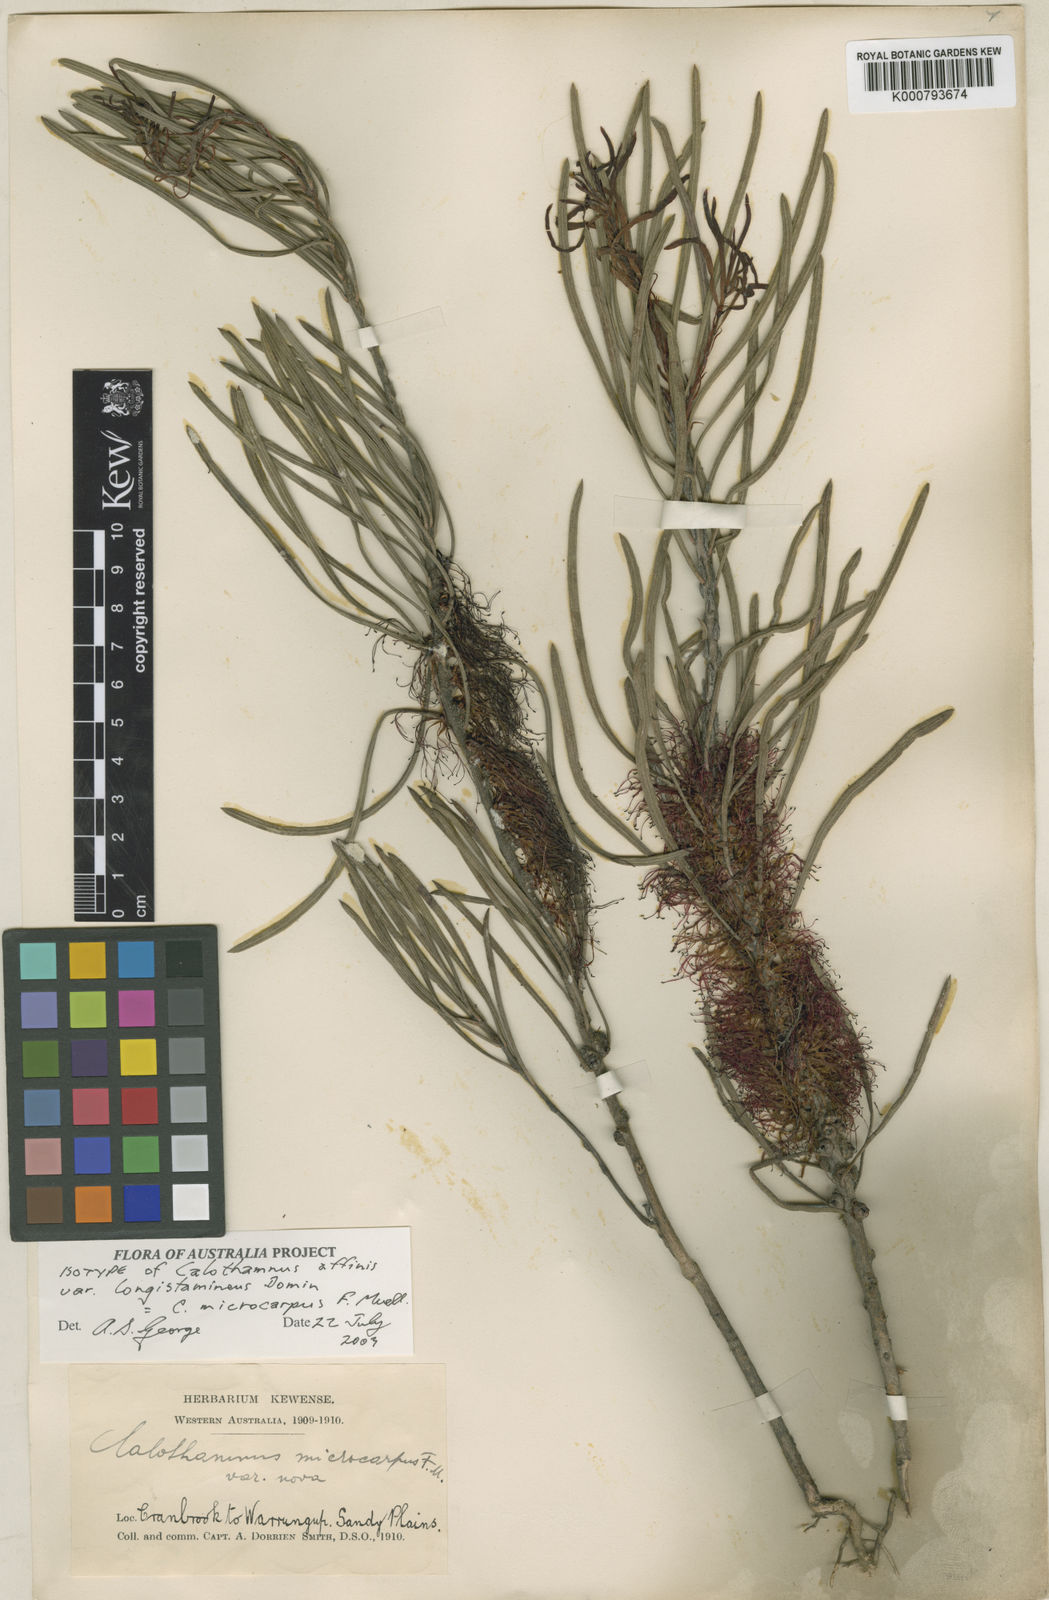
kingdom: Plantae
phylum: Tracheophyta
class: Magnoliopsida
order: Myrtales
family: Myrtaceae
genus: Melaleuca
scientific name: Melaleuca microcarpa
